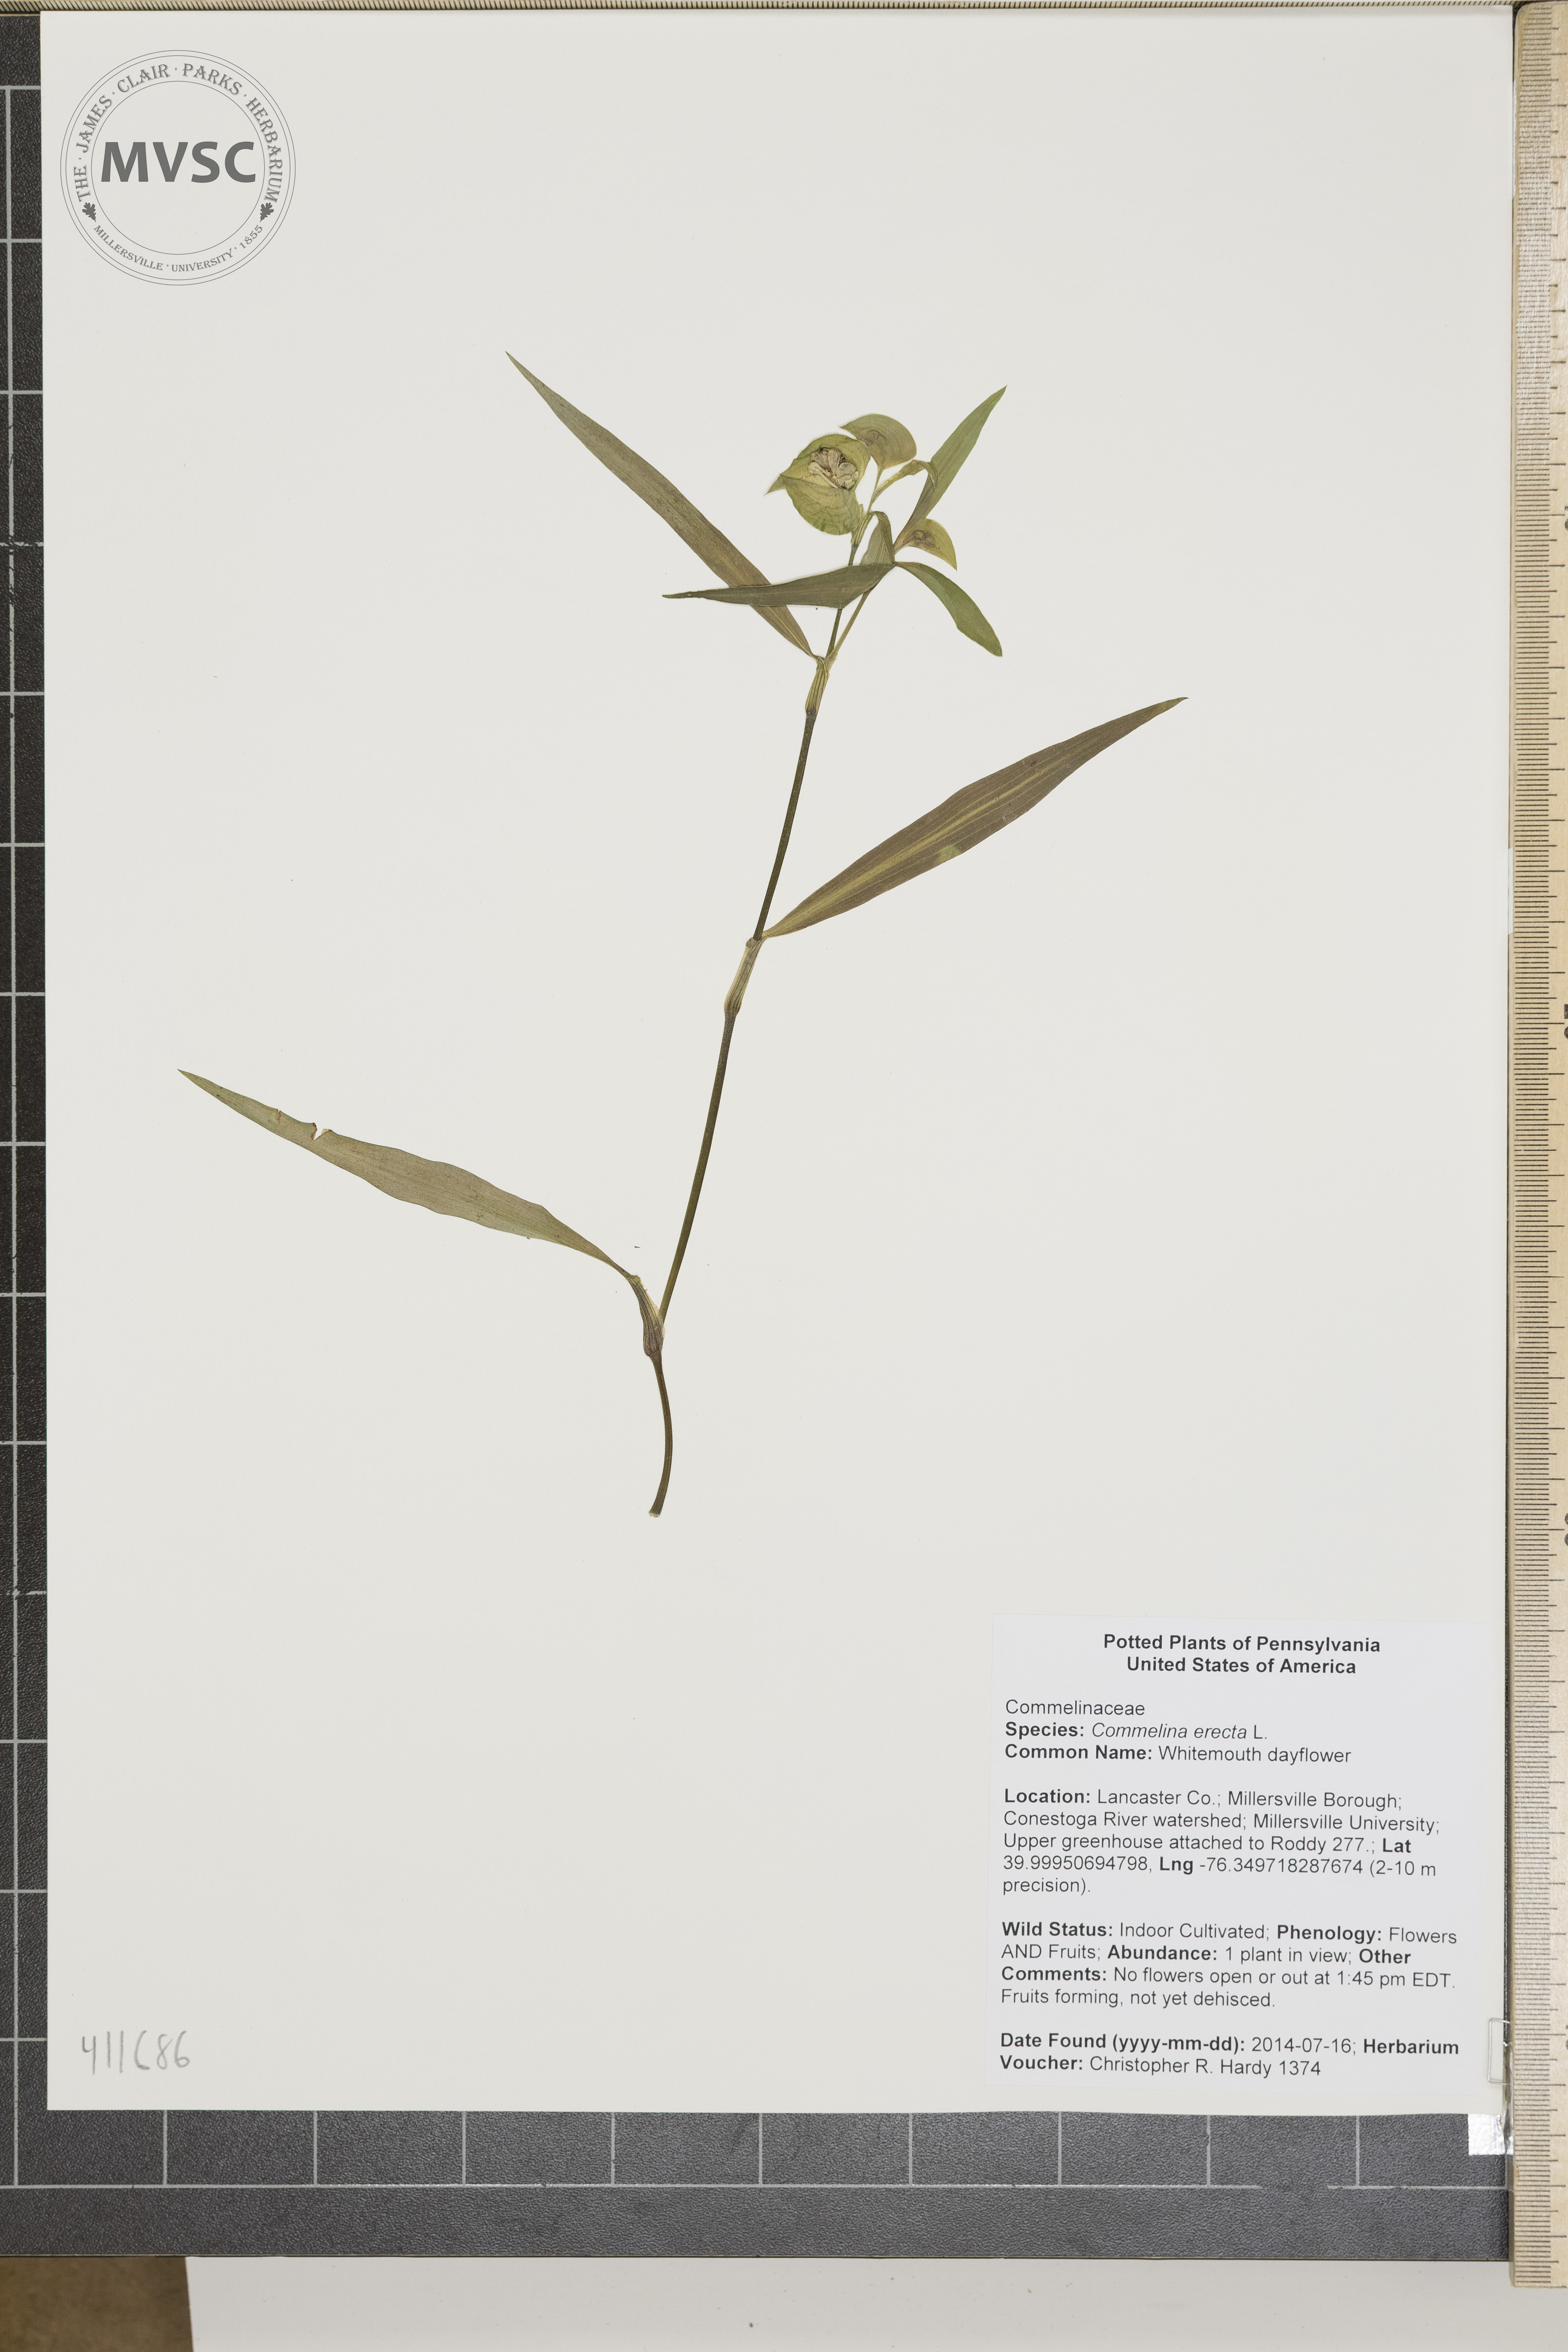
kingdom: Plantae
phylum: Tracheophyta
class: Liliopsida
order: Commelinales
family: Commelinaceae
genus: Commelina
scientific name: Commelina erecta
